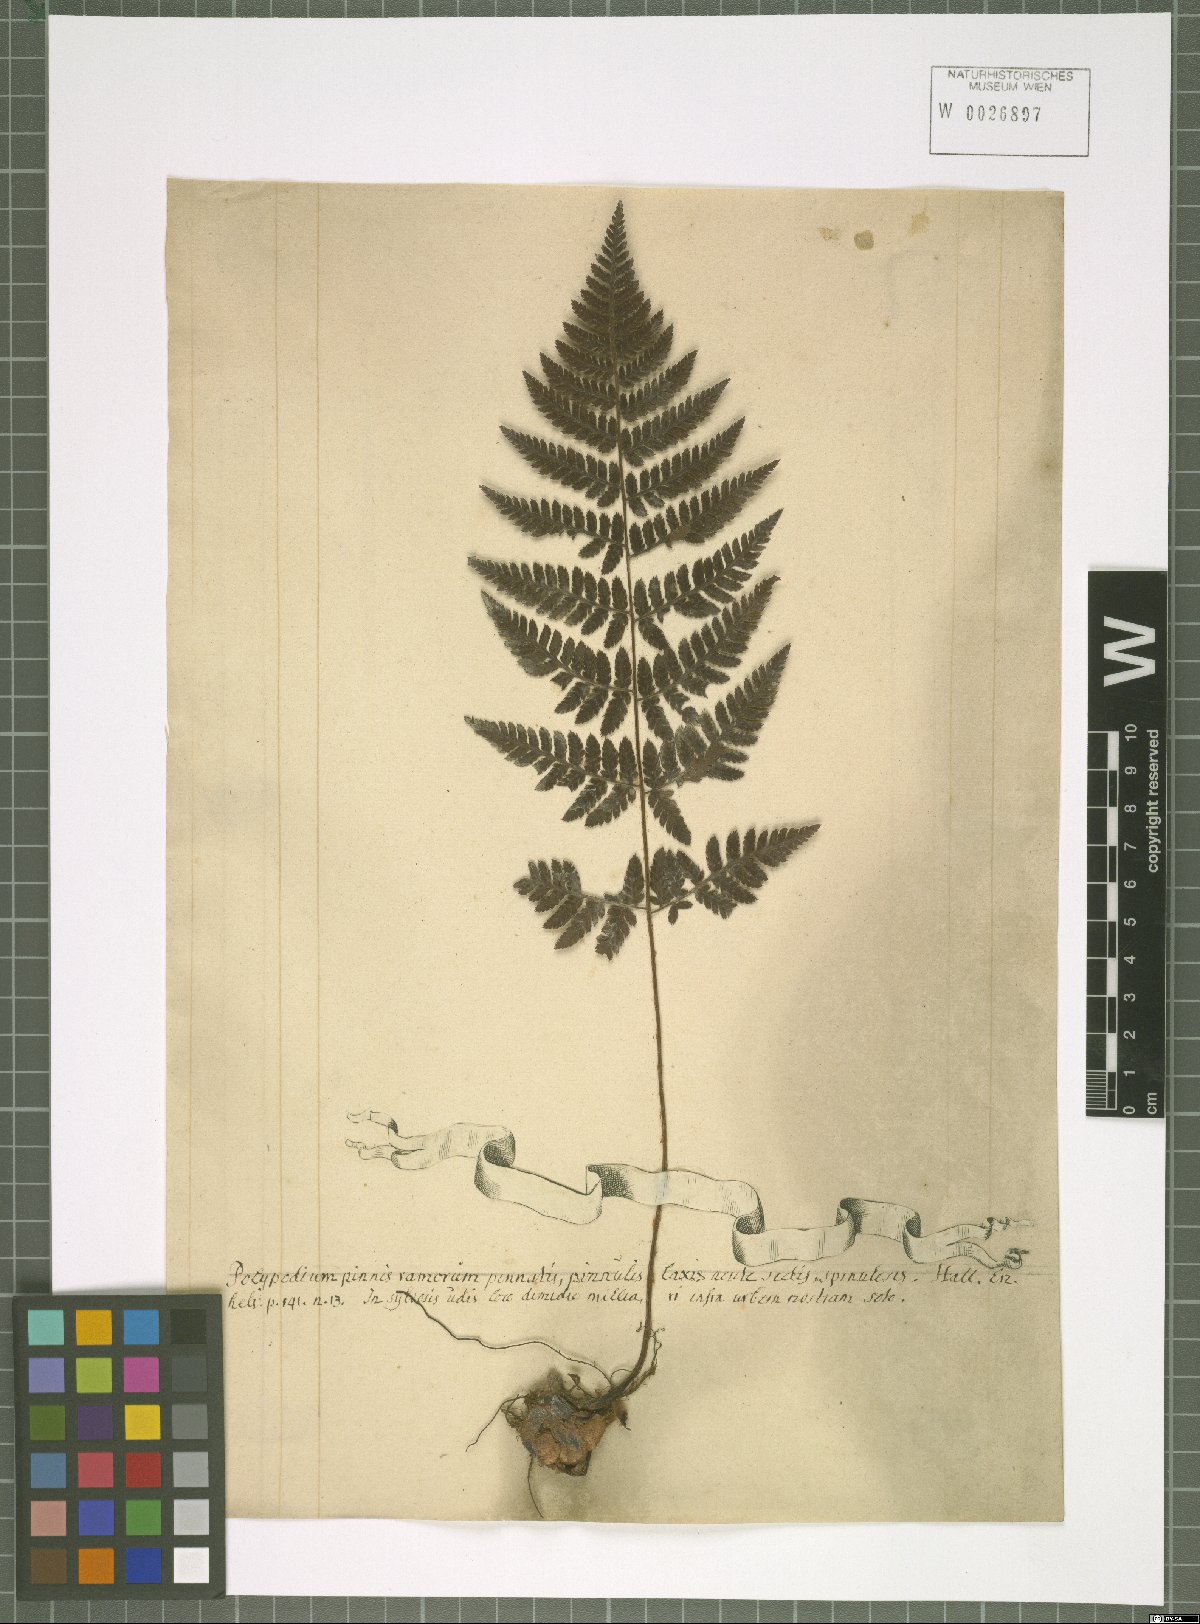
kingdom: Plantae
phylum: Tracheophyta
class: Polypodiopsida
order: Polypodiales
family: Dryopteridaceae
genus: Dryopteris
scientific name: Dryopteris carthusiana
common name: Narrow buckler-fern
